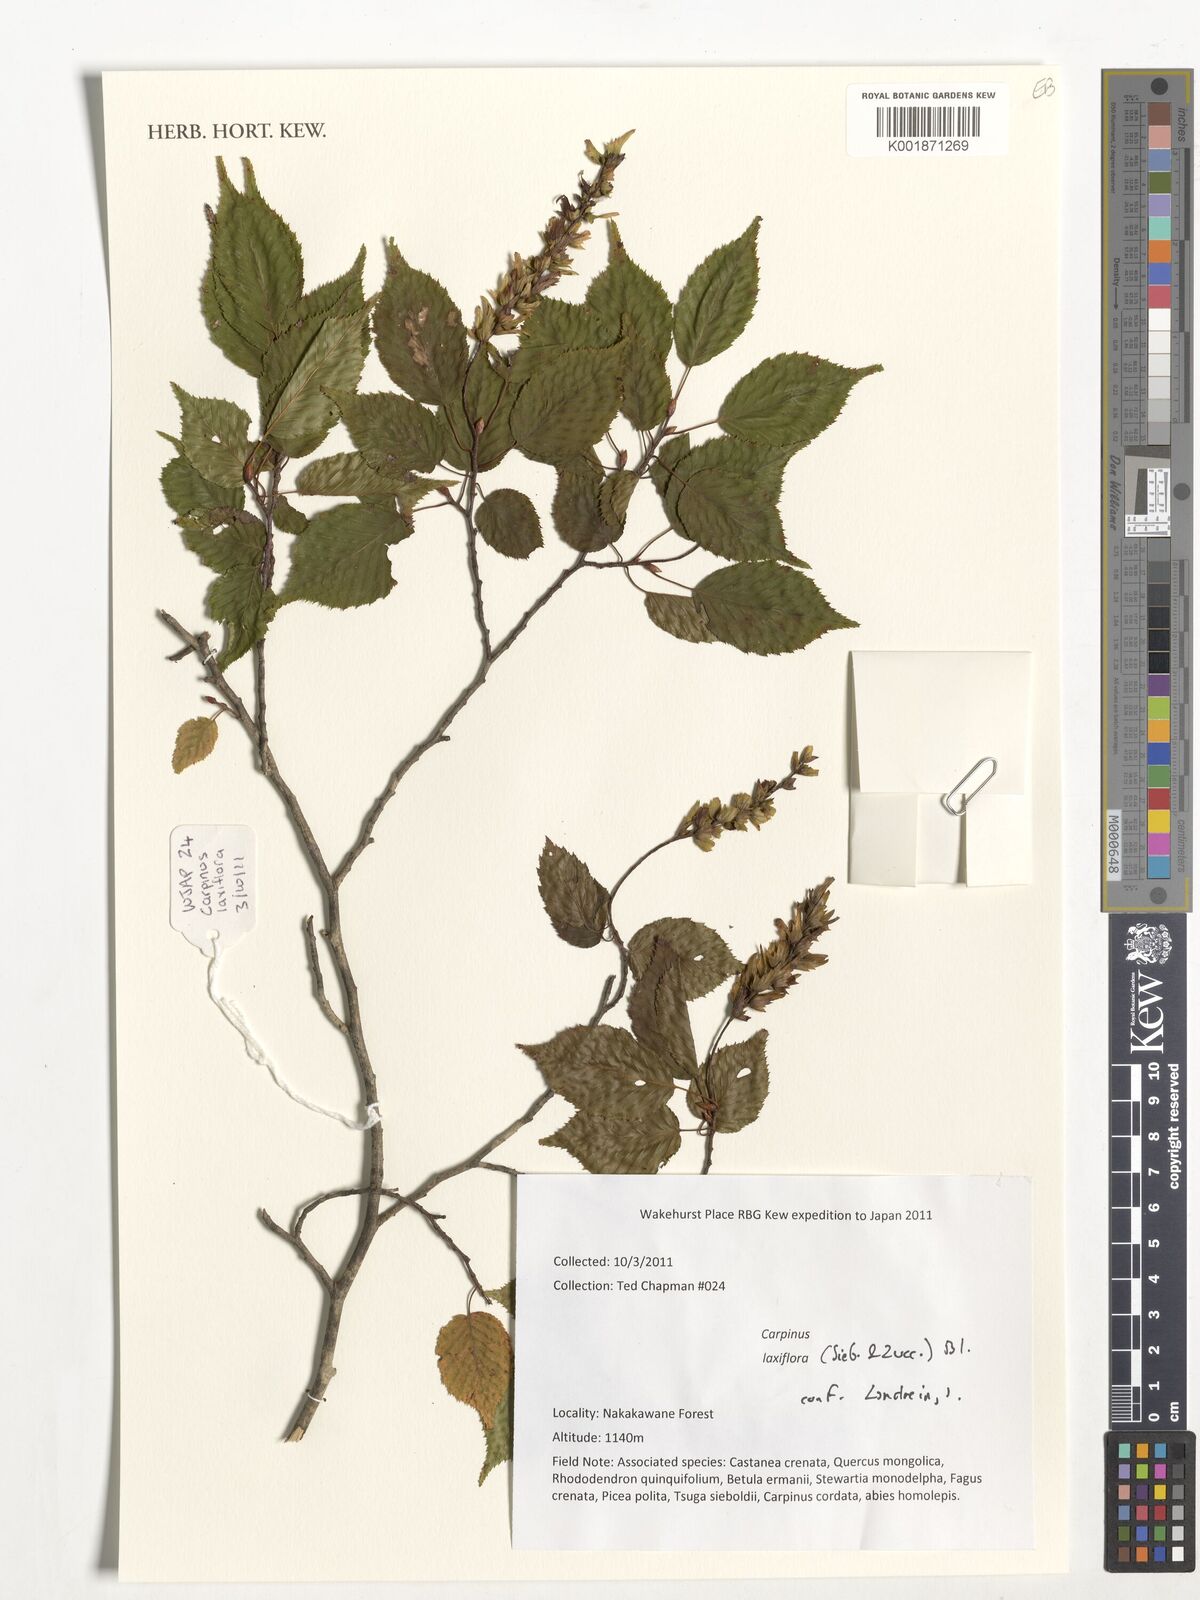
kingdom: Plantae
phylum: Tracheophyta
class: Magnoliopsida
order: Fagales
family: Betulaceae
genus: Carpinus
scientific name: Carpinus laxiflora
